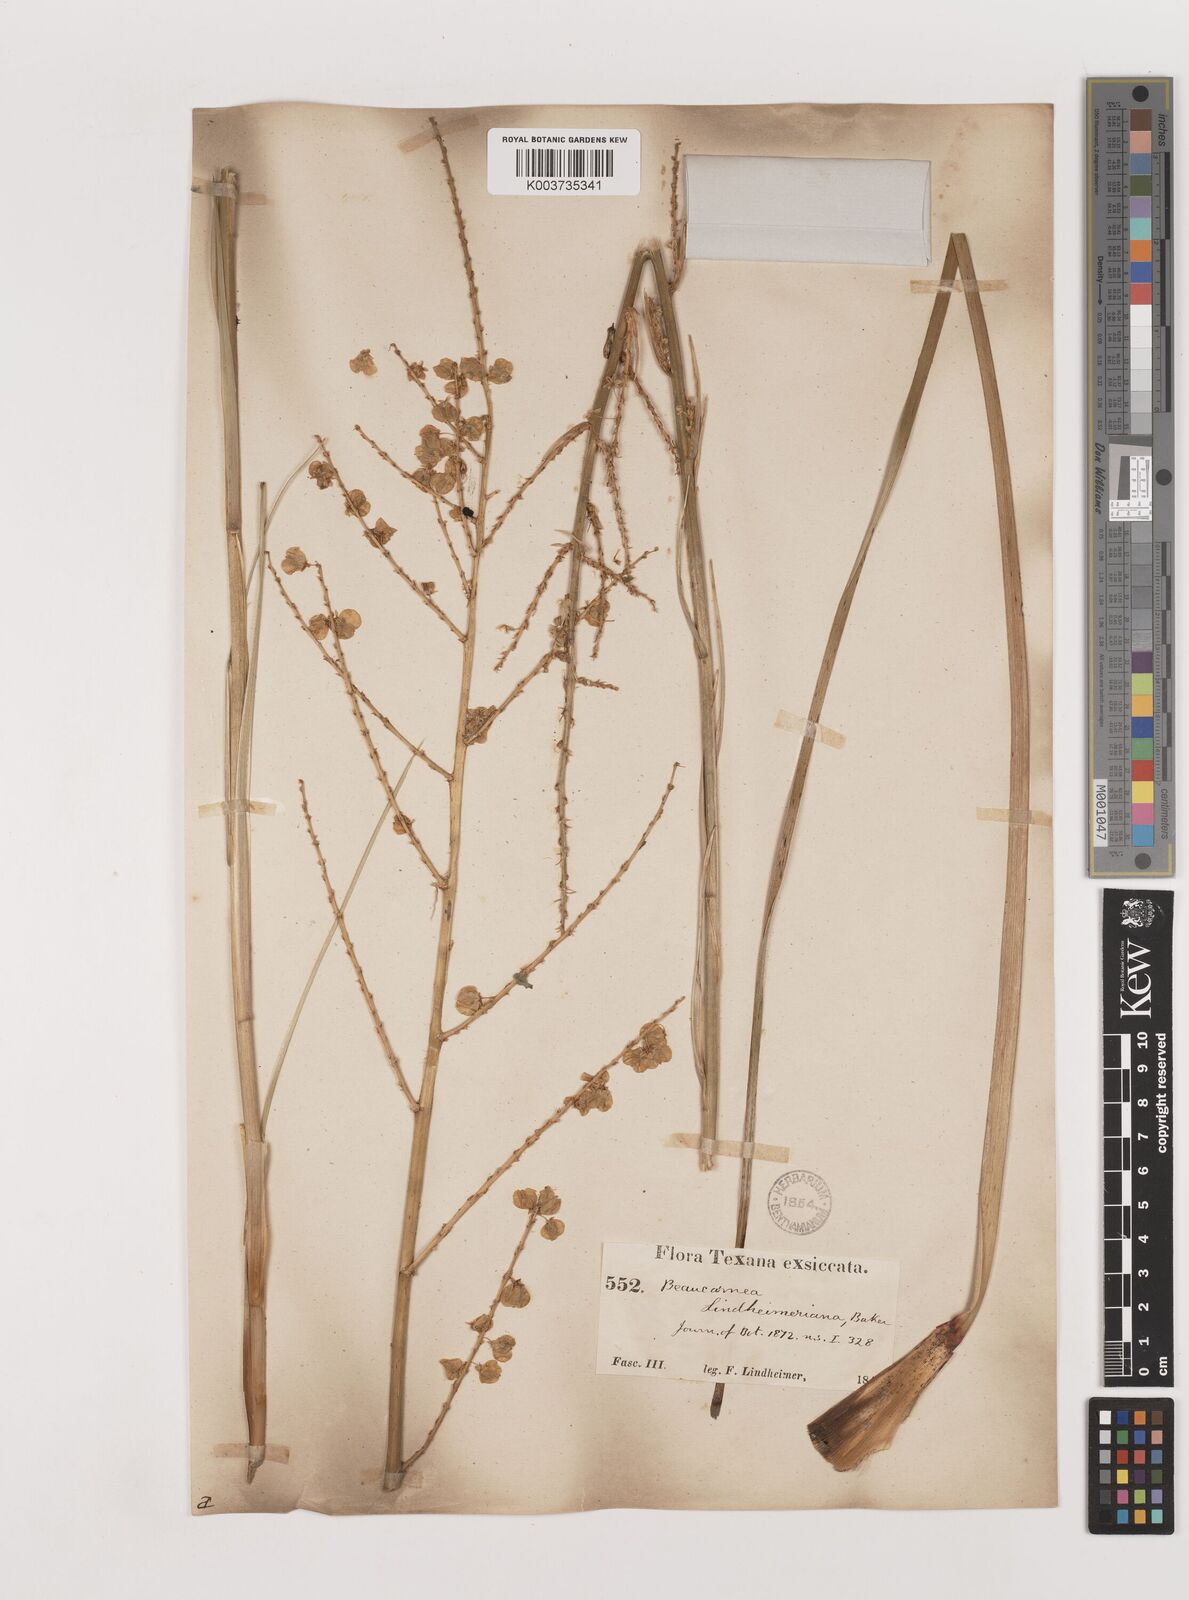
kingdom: Plantae
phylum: Tracheophyta
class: Liliopsida
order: Asparagales
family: Asparagaceae
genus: Nolina
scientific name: Nolina lindheimeriana
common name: Lindheimer's bear-grass
